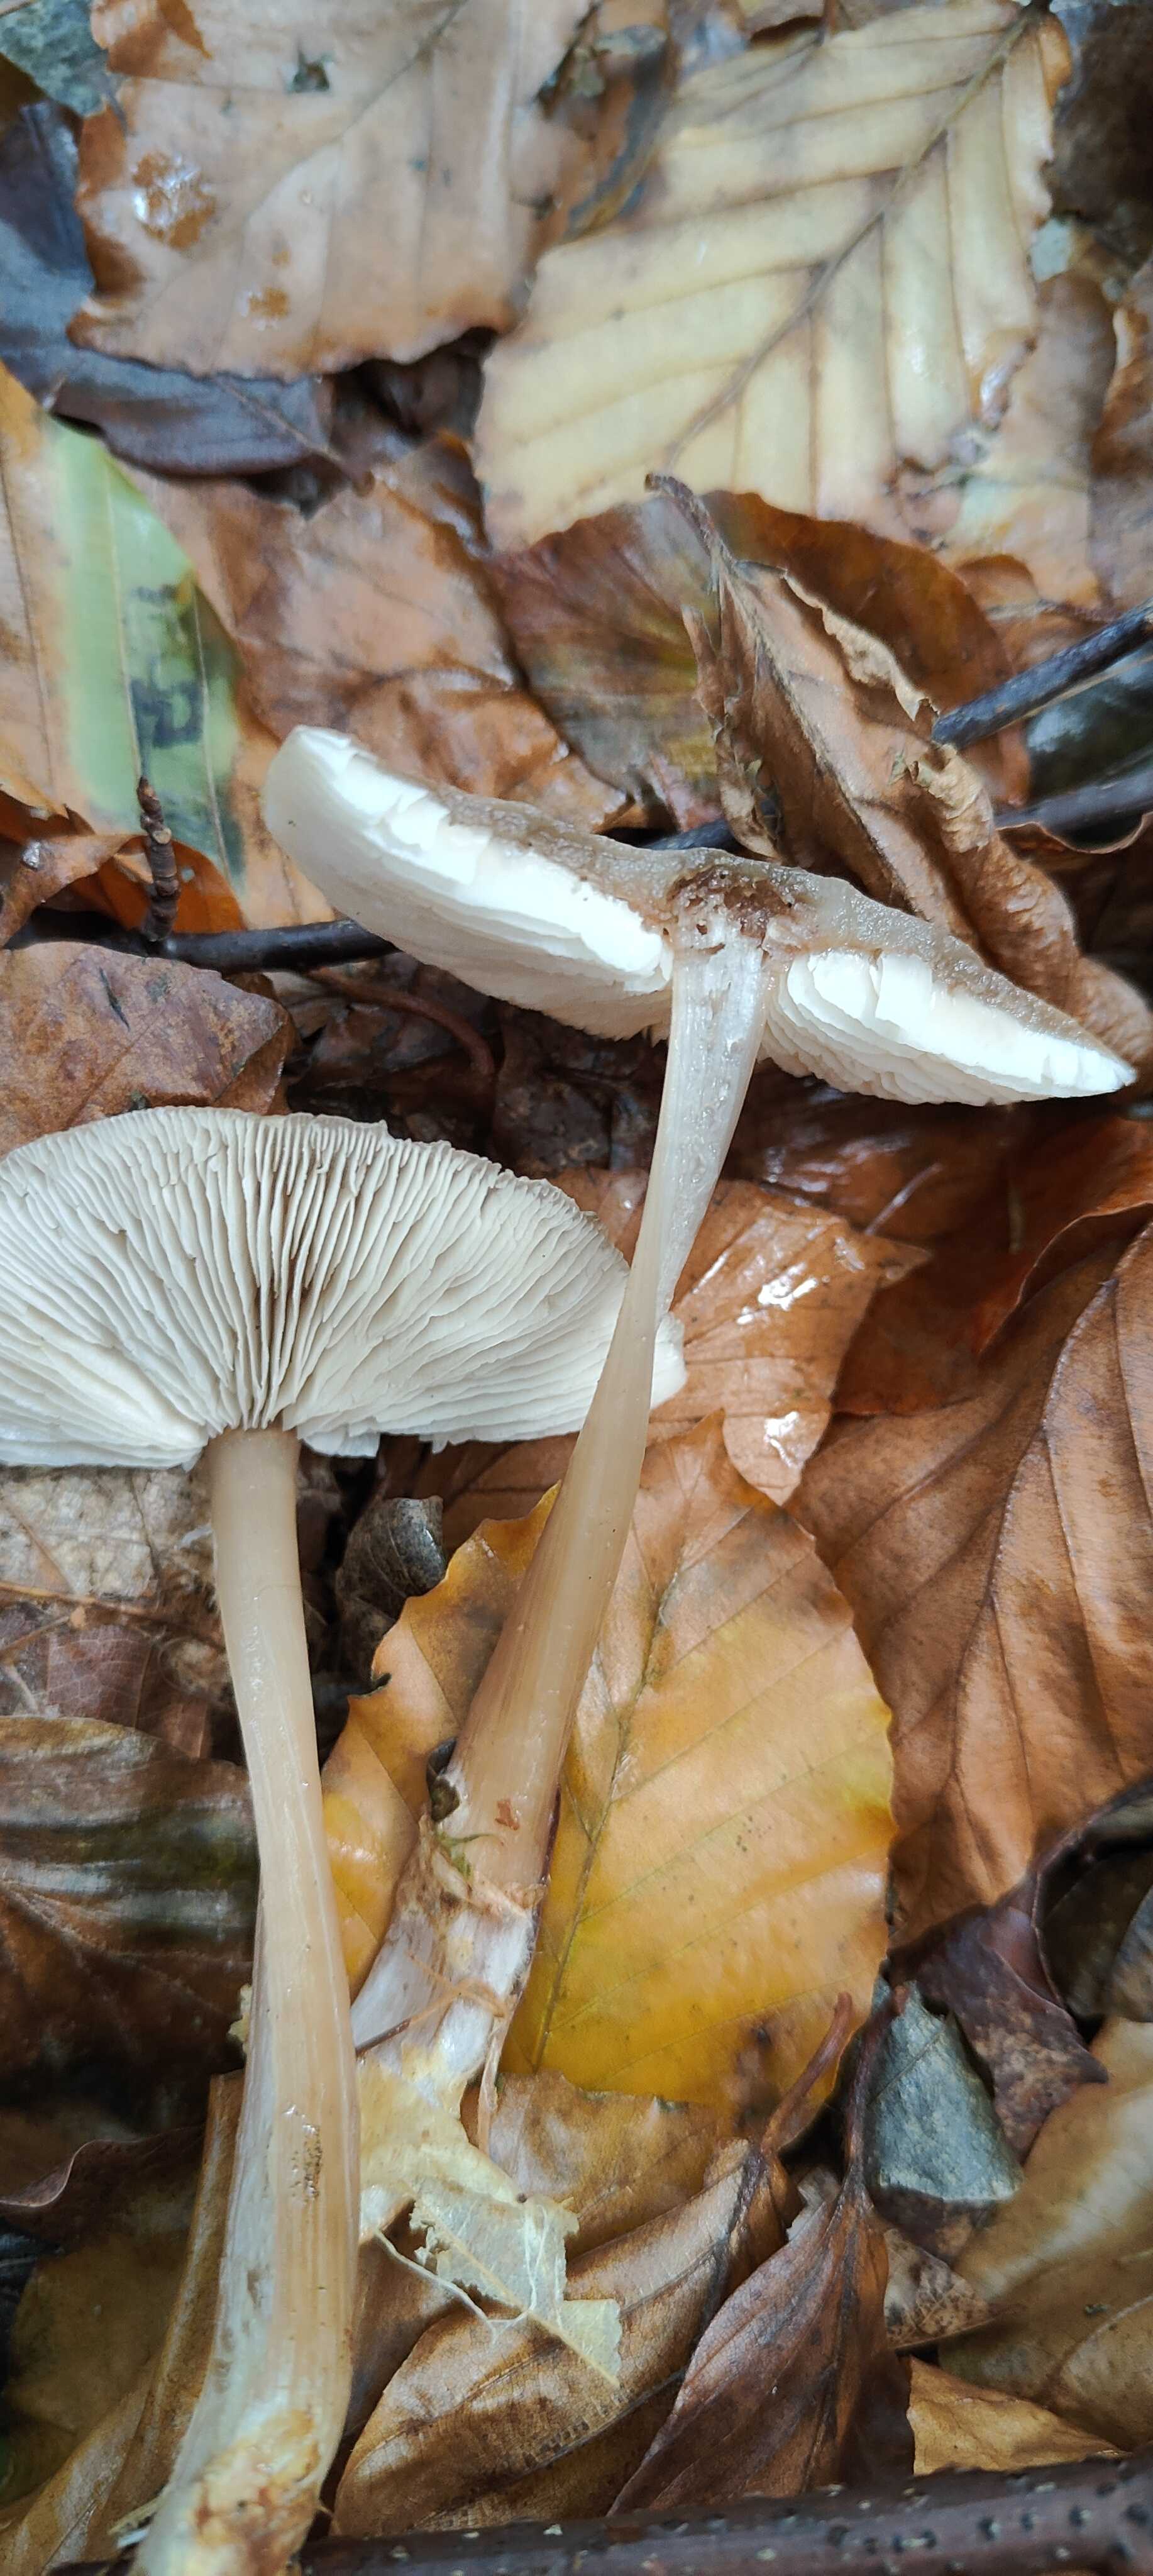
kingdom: Fungi
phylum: Basidiomycota
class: Agaricomycetes
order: Agaricales
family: Omphalotaceae
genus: Rhodocollybia
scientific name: Rhodocollybia asema
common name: horngrå fladhat
